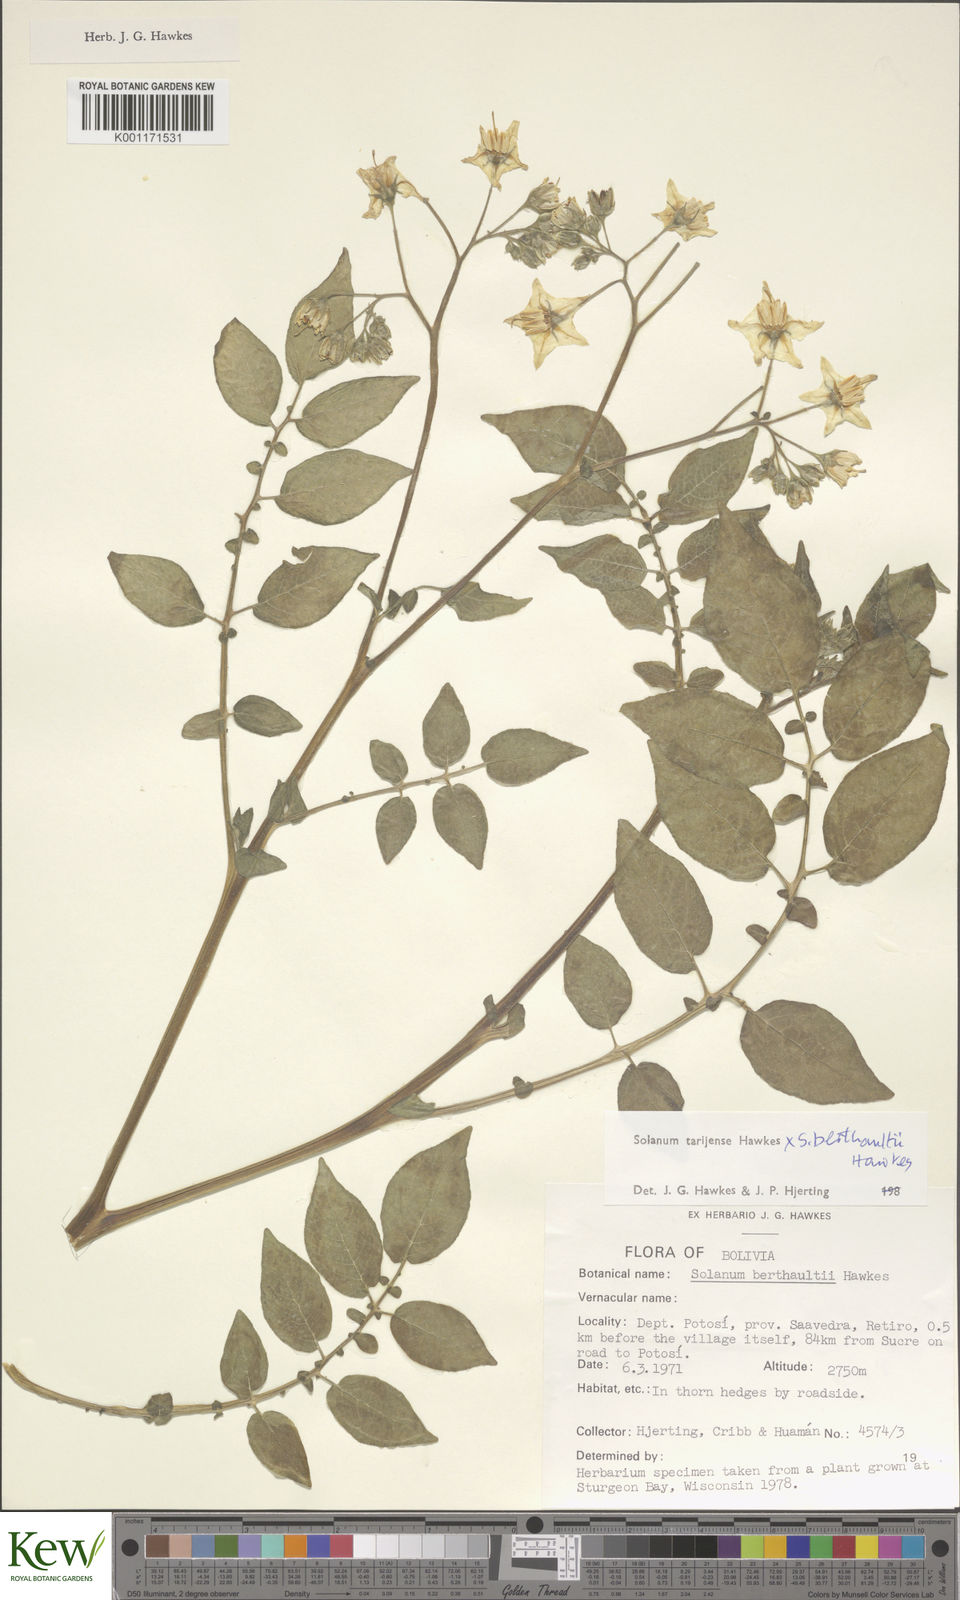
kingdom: Plantae
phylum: Tracheophyta
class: Magnoliopsida
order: Solanales
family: Solanaceae
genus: Solanum
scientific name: Solanum tarijense
